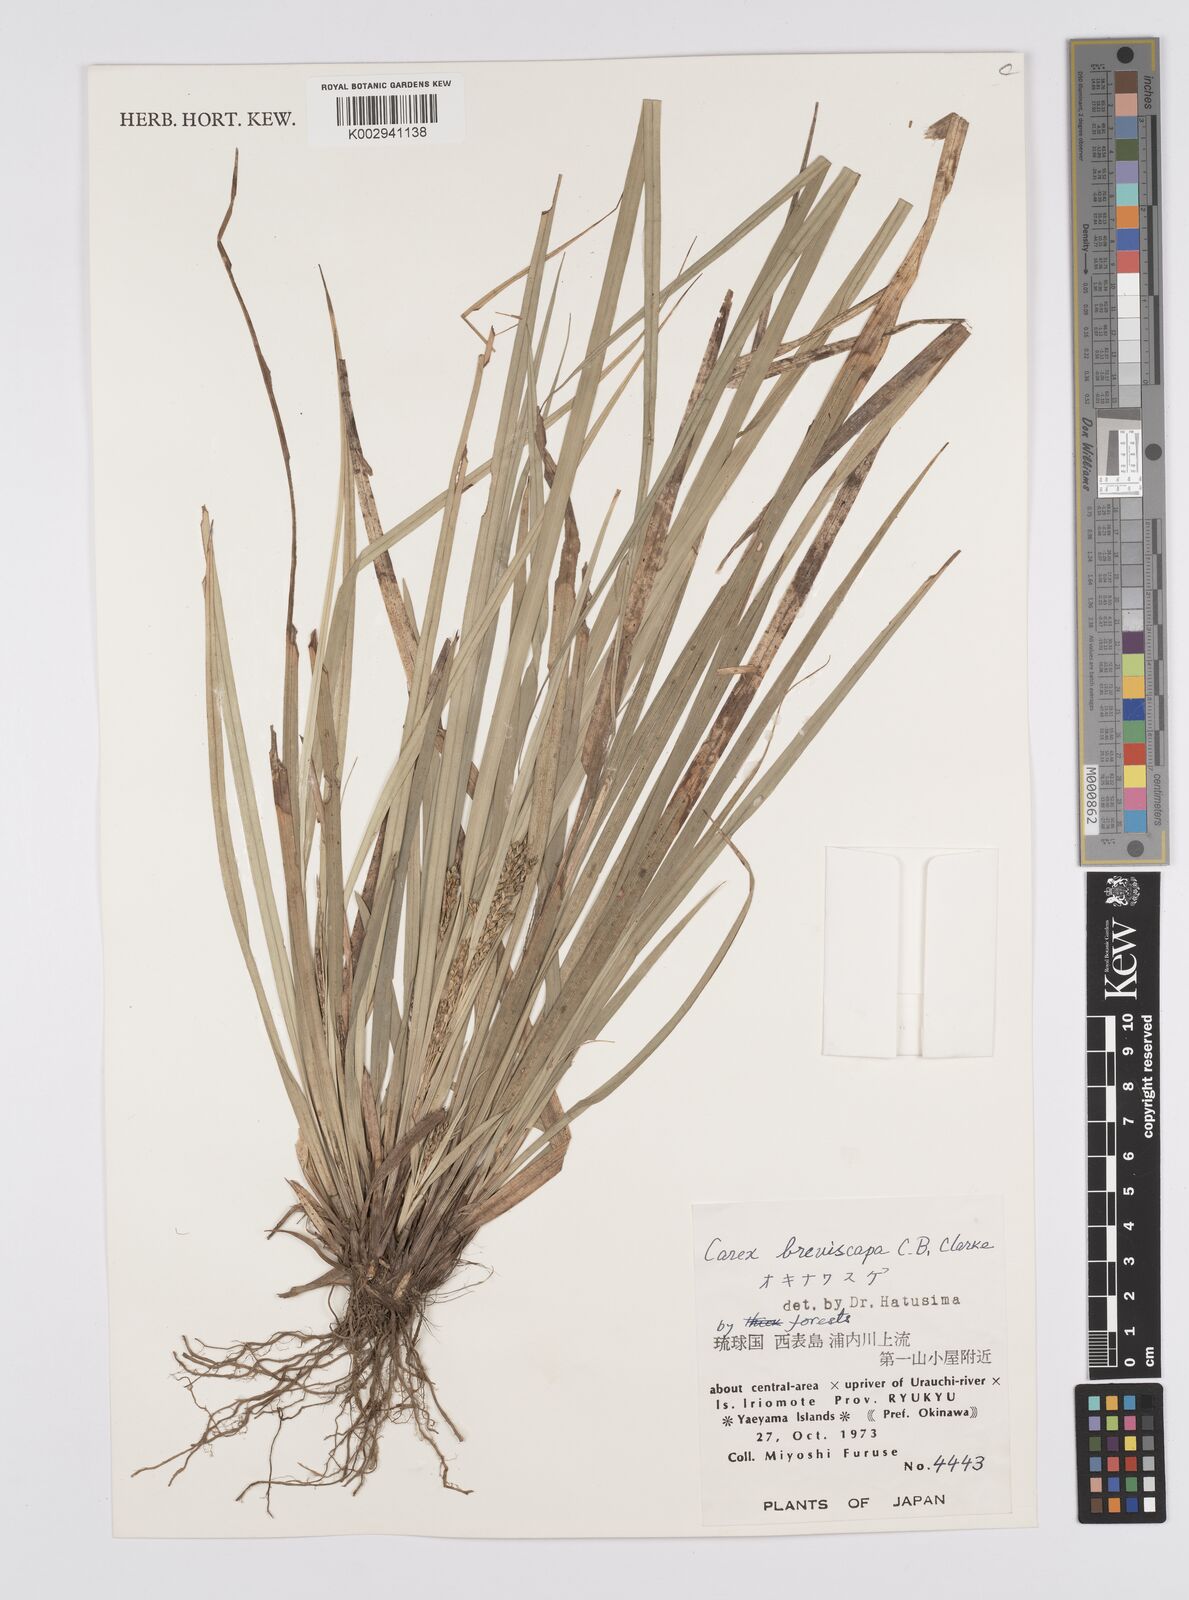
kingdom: Plantae
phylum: Tracheophyta
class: Liliopsida
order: Poales
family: Cyperaceae
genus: Carex
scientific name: Carex breviscapa
